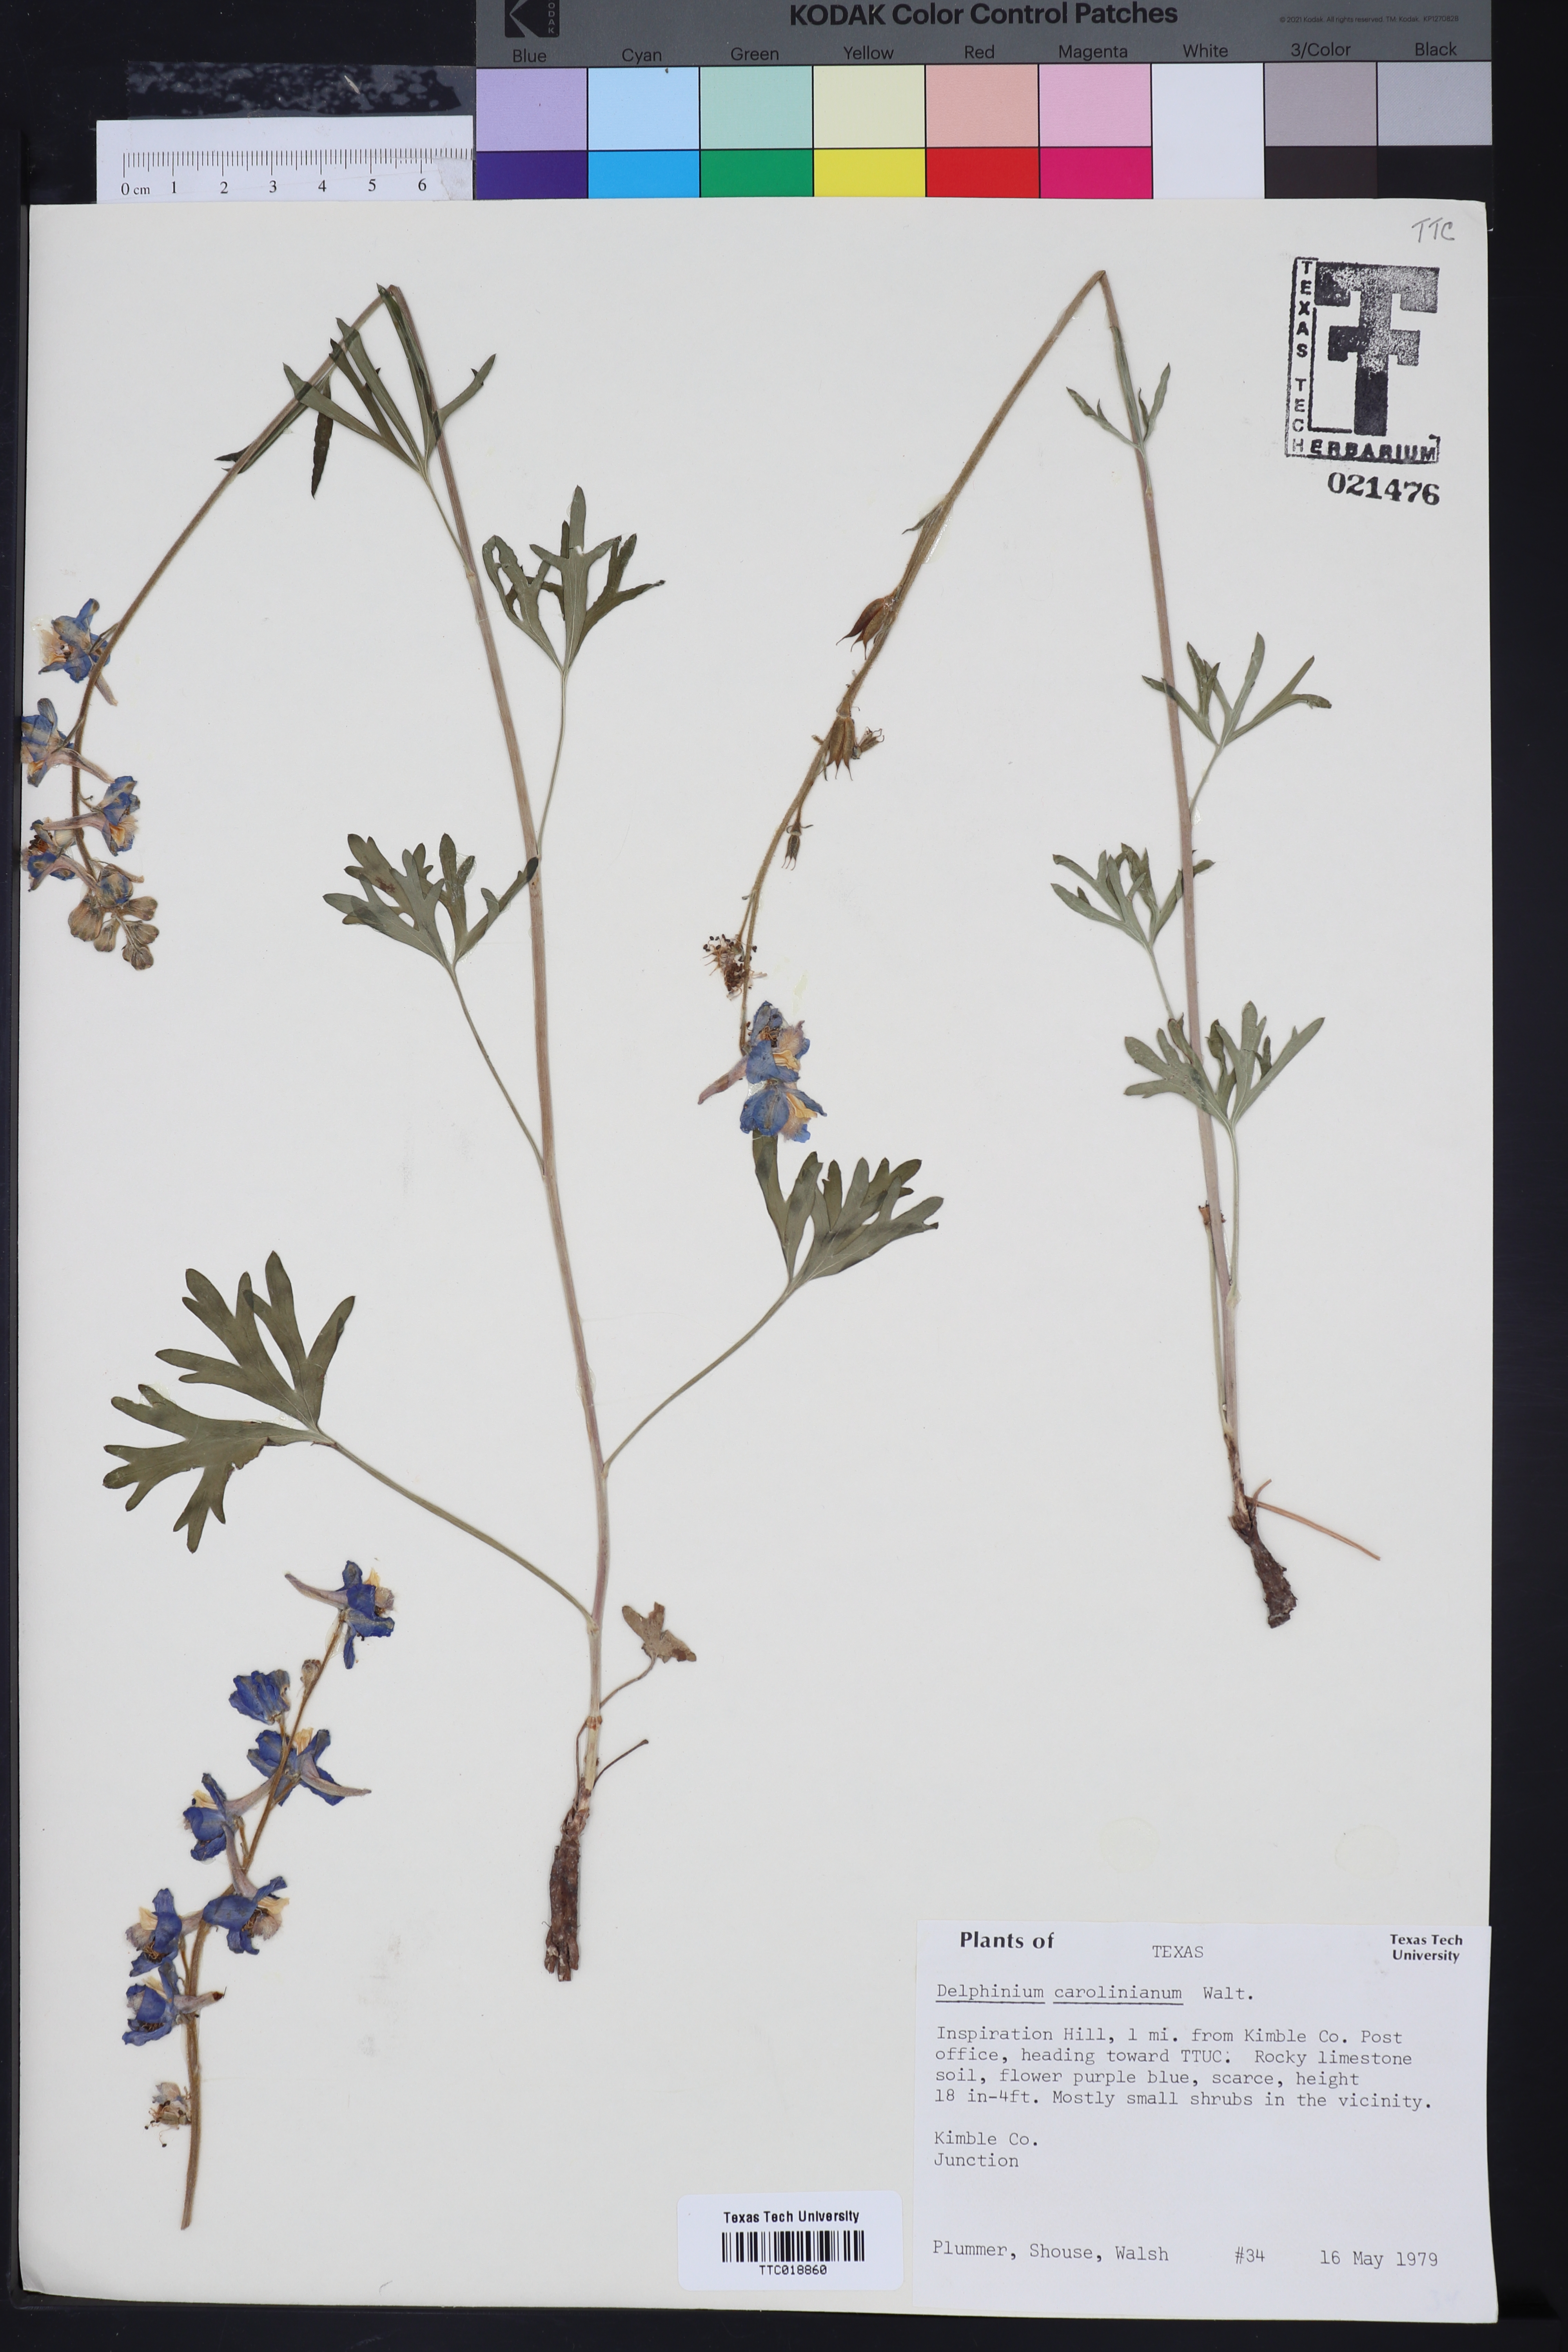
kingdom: Plantae
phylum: Tracheophyta
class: Magnoliopsida
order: Ranunculales
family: Ranunculaceae
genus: Delphinium
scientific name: Delphinium carolinianum
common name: Carolina larkspur
